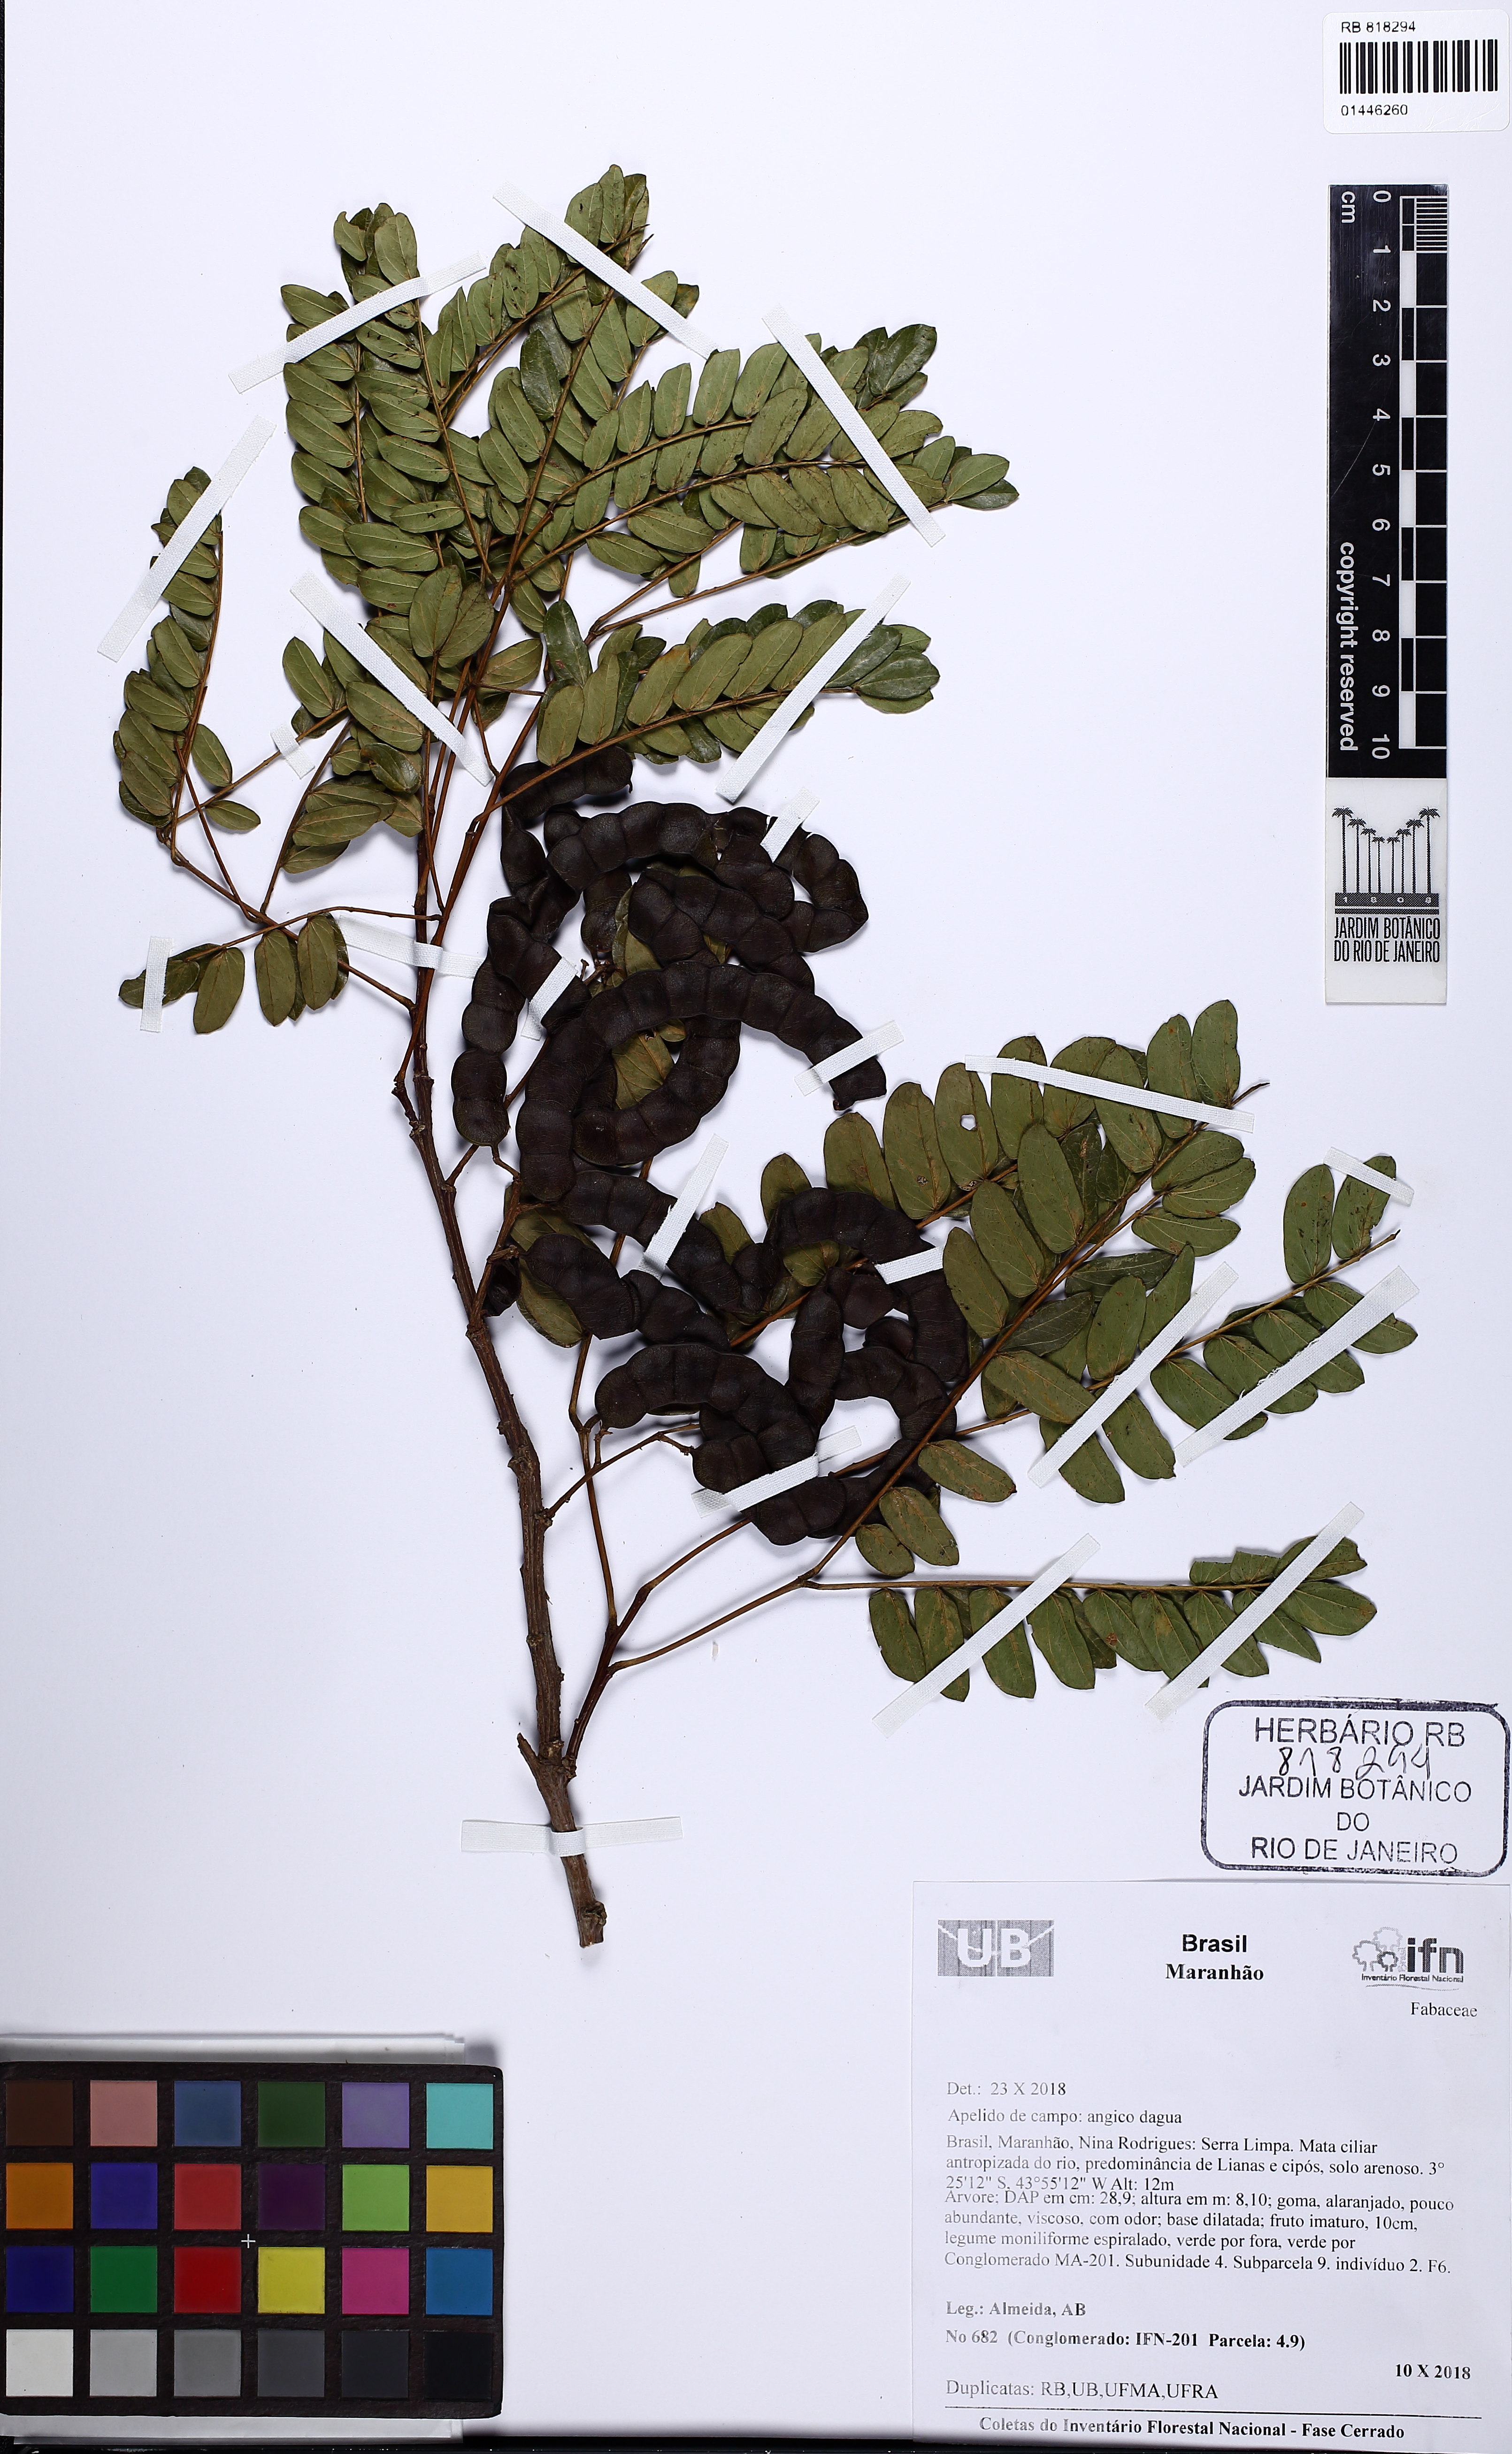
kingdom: Plantae
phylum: Tracheophyta
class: Magnoliopsida
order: Fabales
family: Fabaceae
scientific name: Fabaceae
